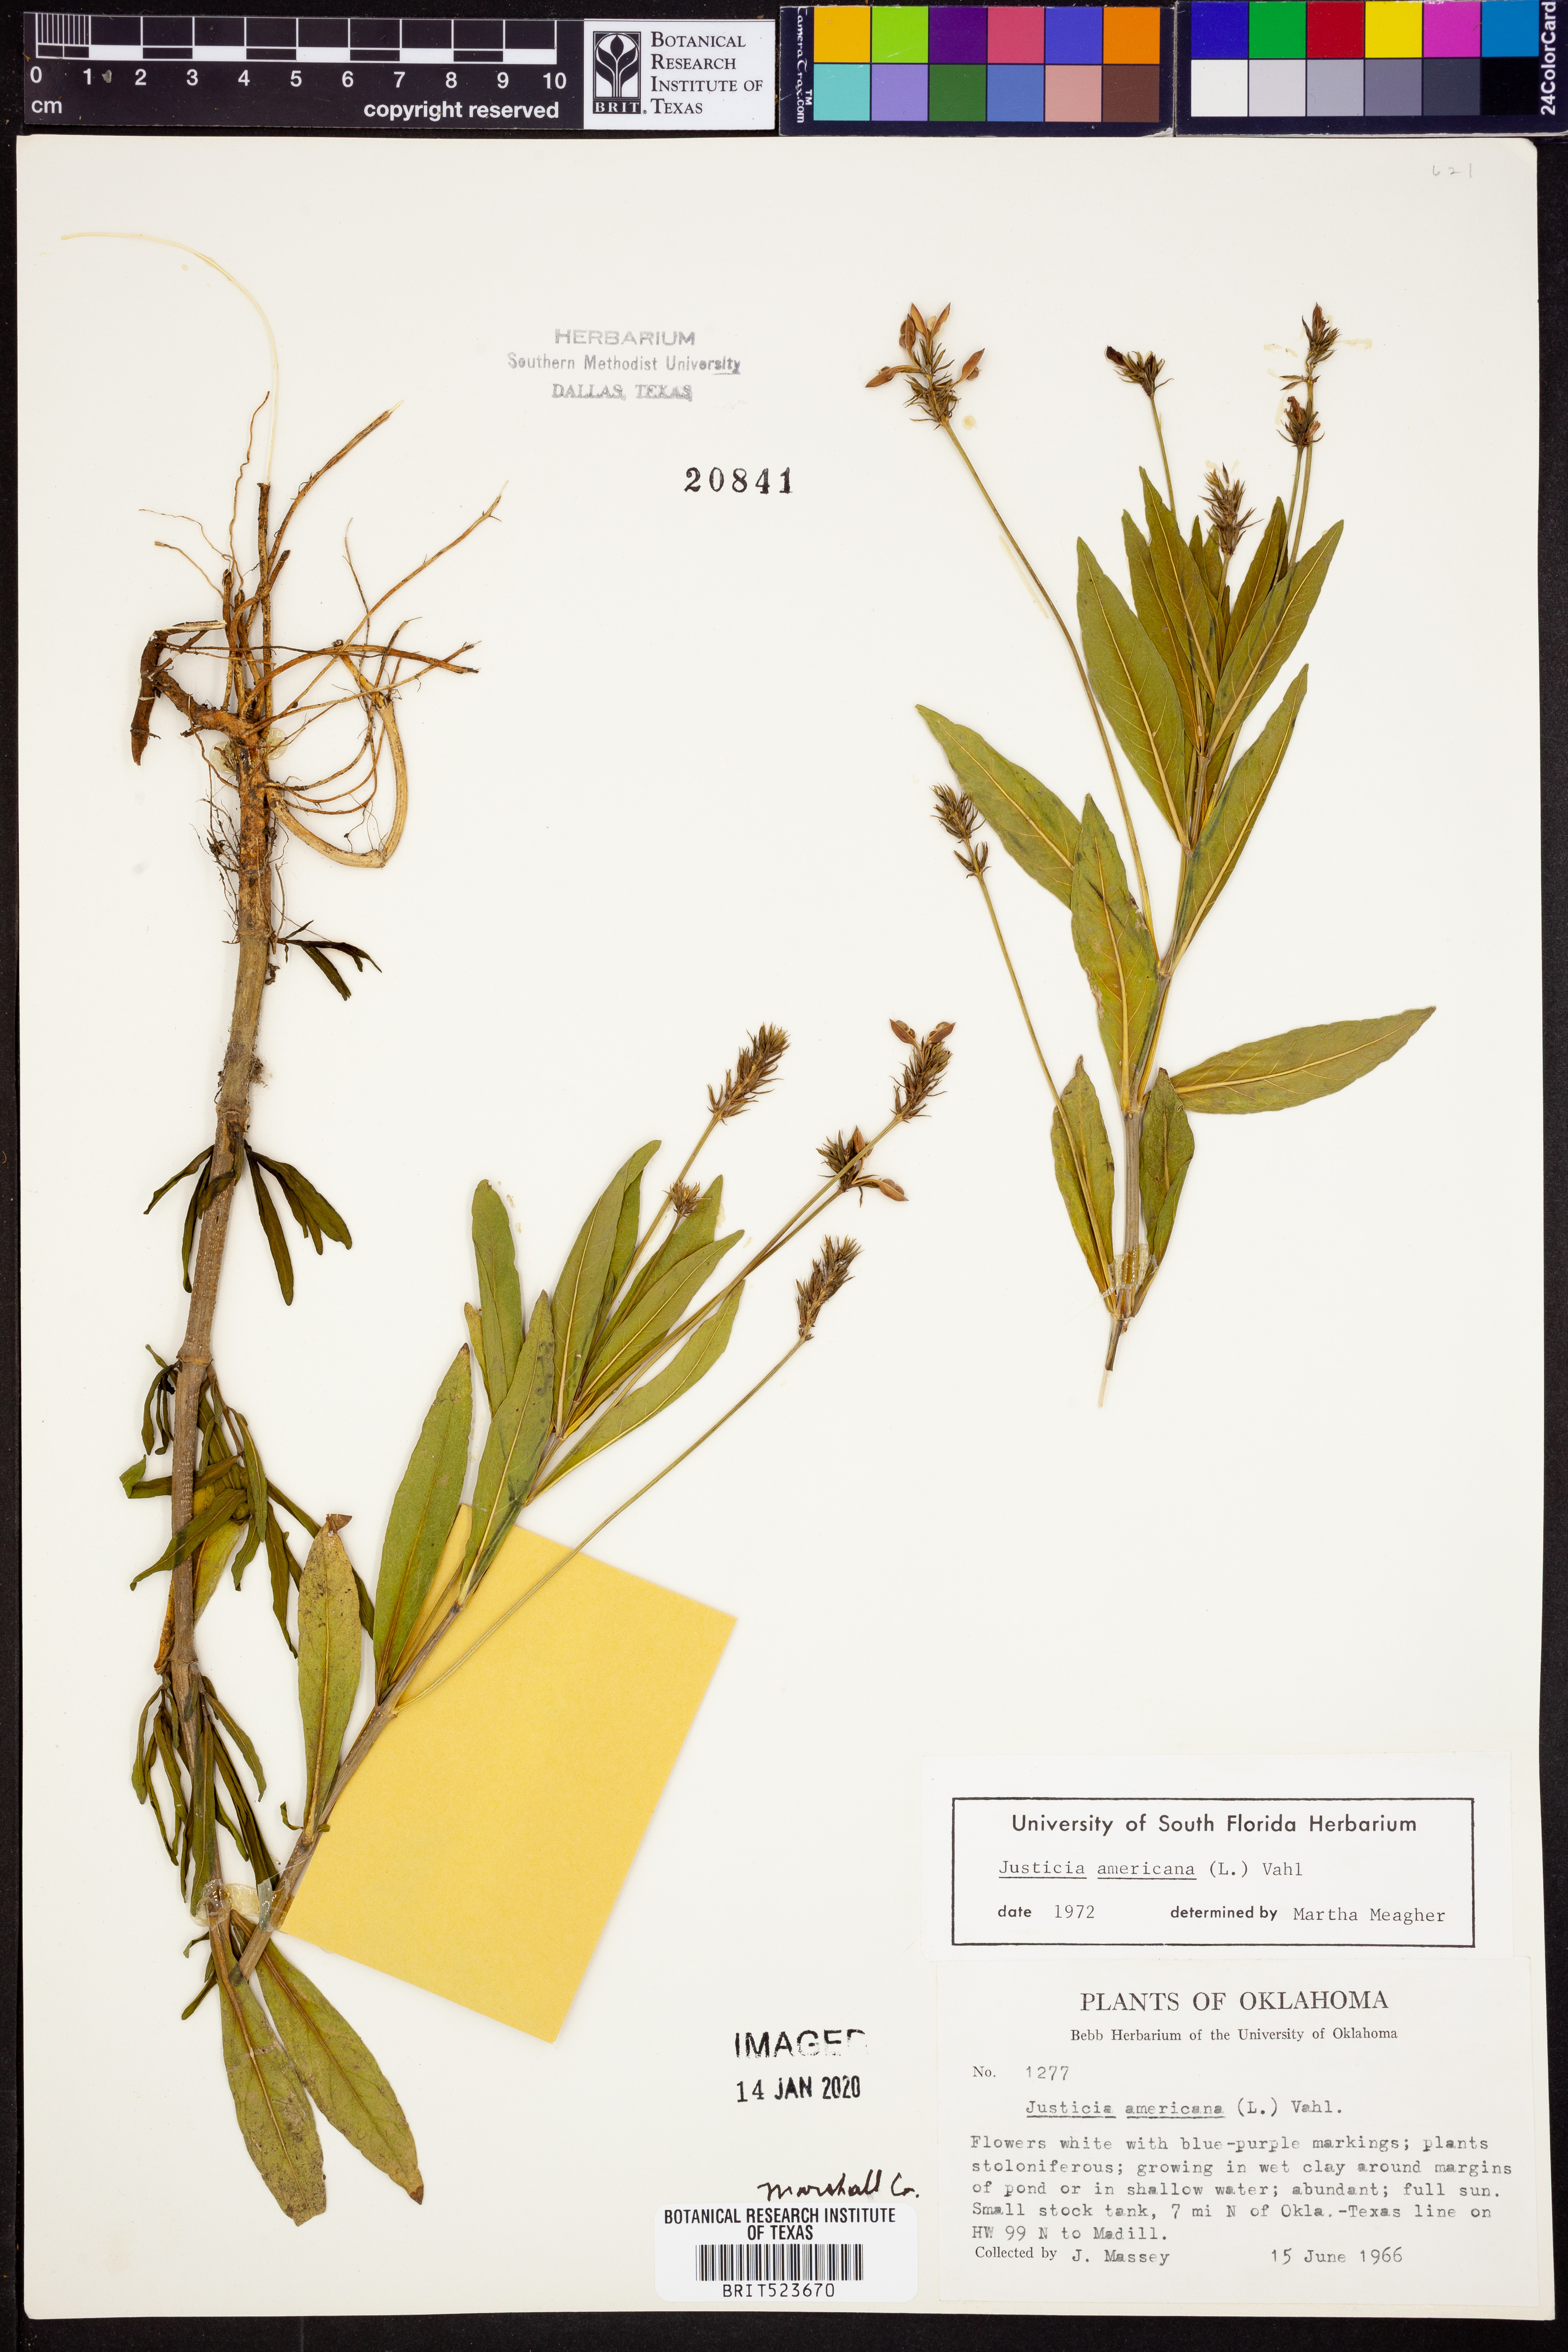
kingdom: Plantae
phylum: Tracheophyta
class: Magnoliopsida
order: Lamiales
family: Acanthaceae
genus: Dianthera
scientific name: Dianthera americana
